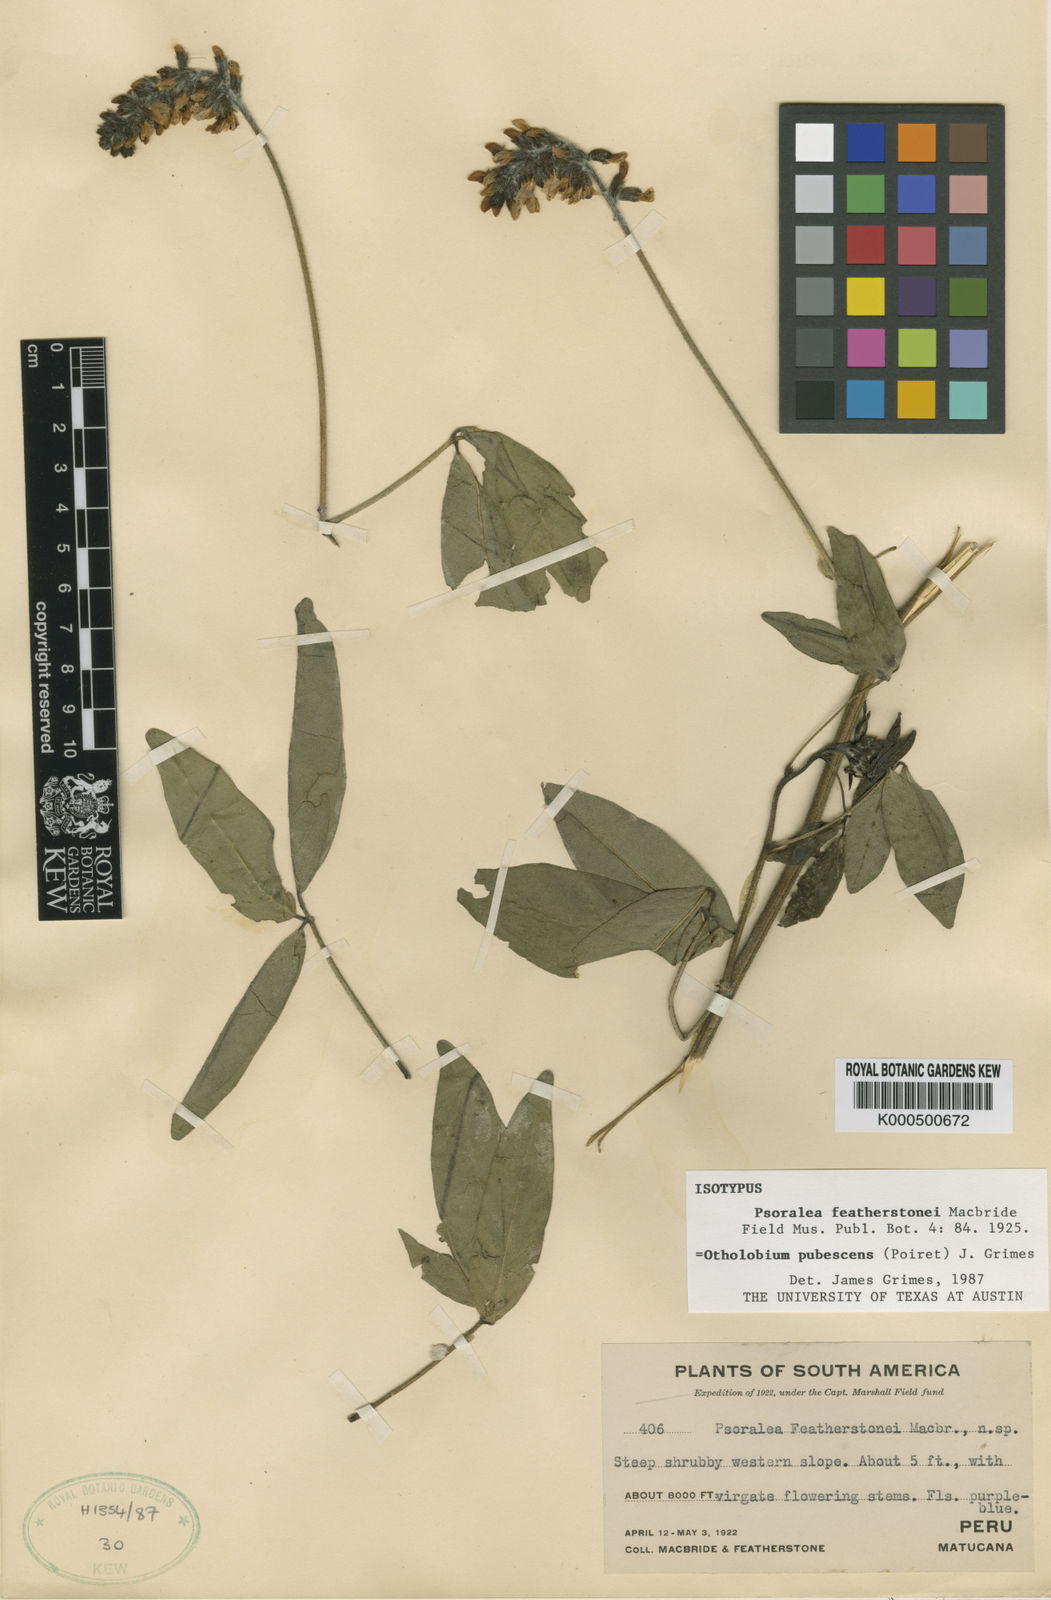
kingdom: Plantae
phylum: Tracheophyta
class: Magnoliopsida
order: Fabales
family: Fabaceae
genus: Psoralea
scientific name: Psoralea Otholobium pubescens
